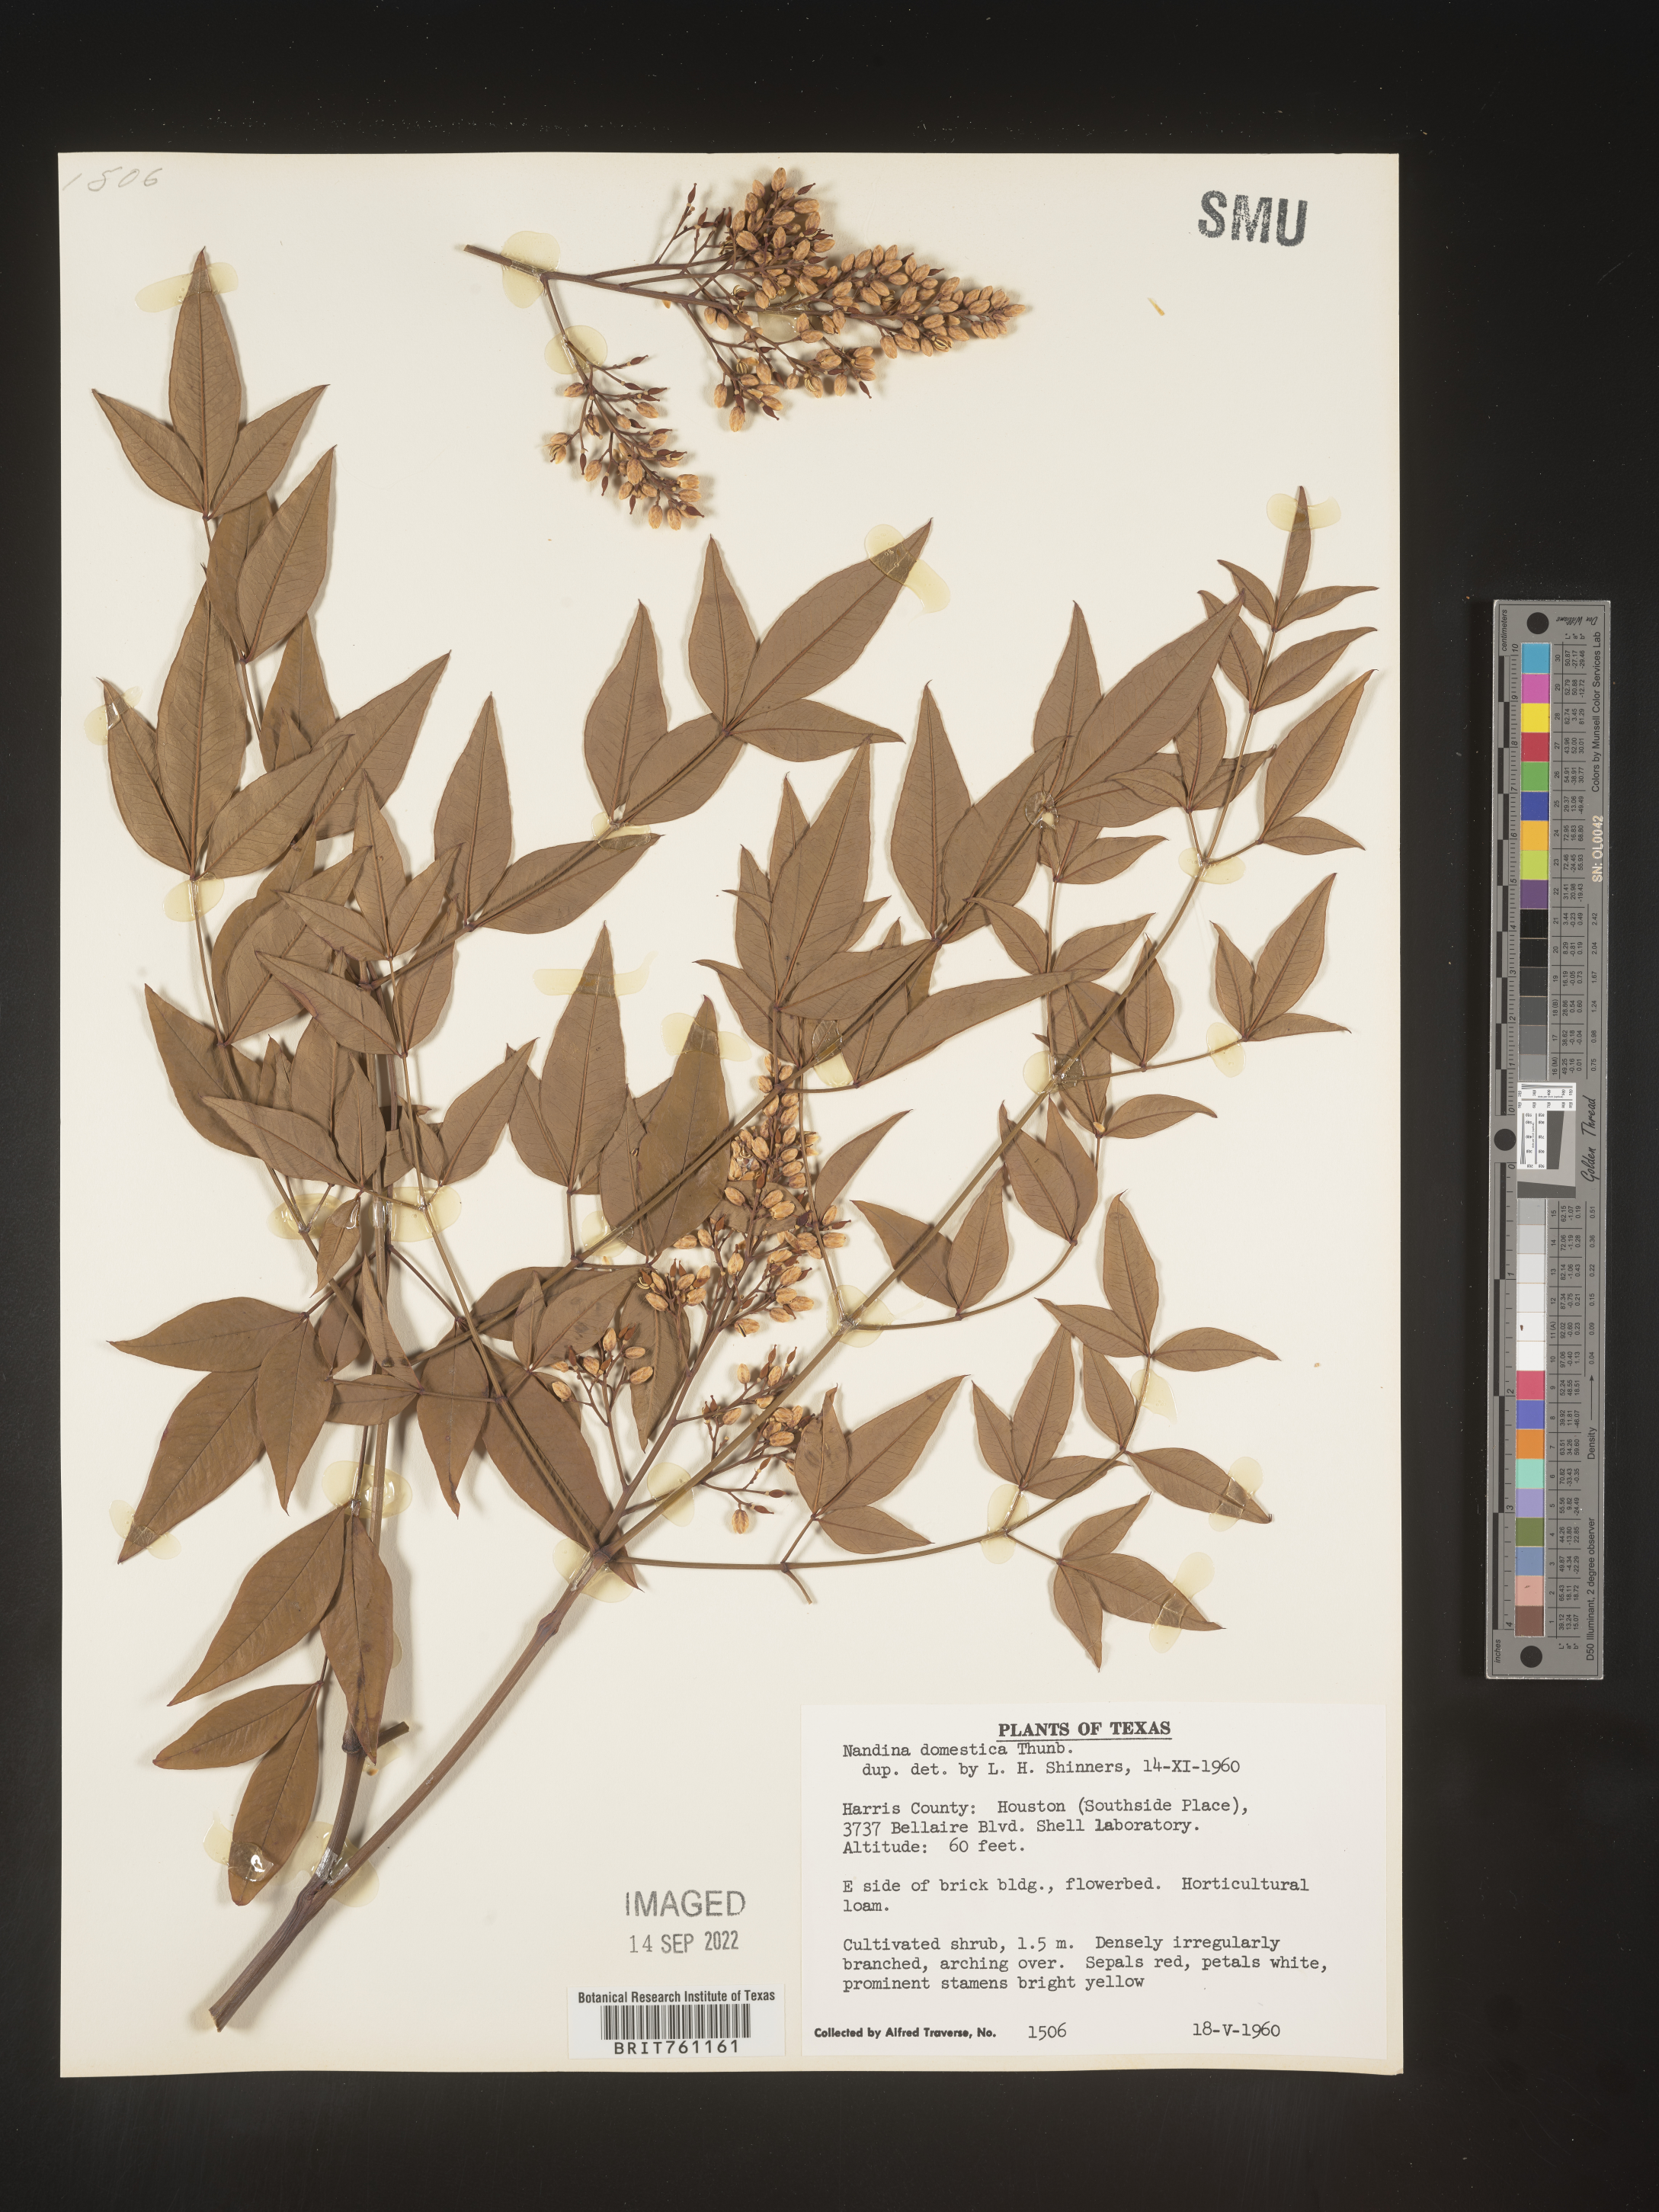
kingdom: Plantae
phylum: Tracheophyta
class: Magnoliopsida
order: Ranunculales
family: Berberidaceae
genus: Nandina
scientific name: Nandina
